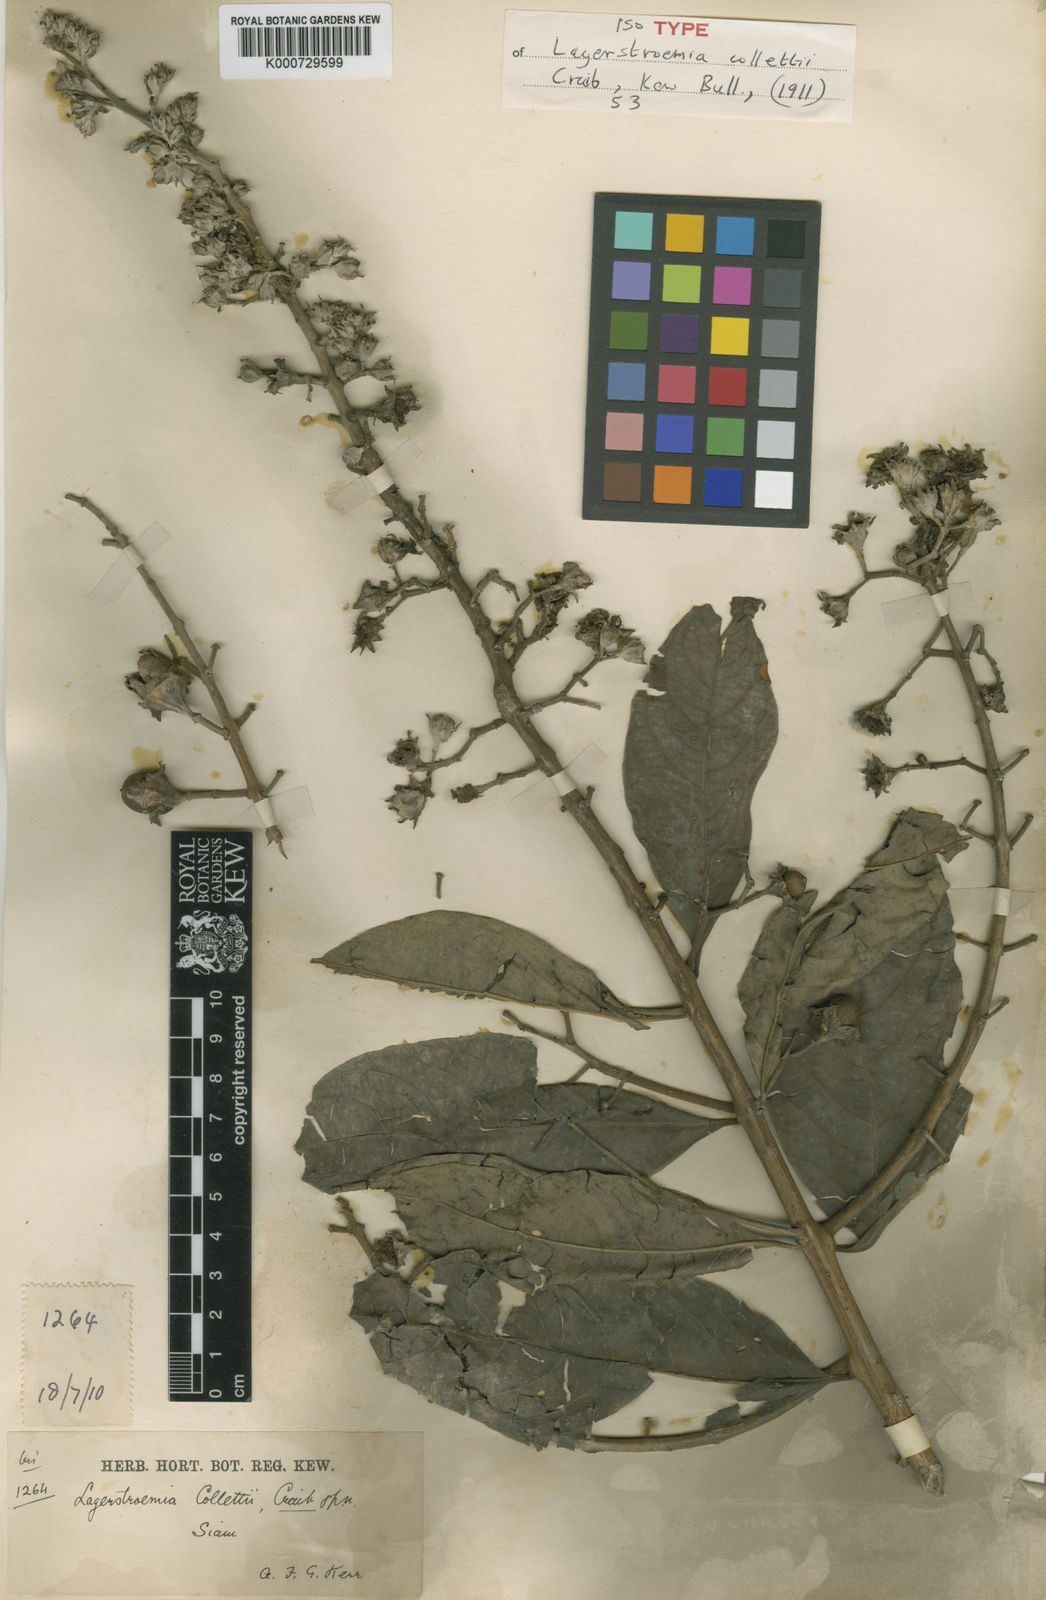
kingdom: Plantae
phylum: Tracheophyta
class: Magnoliopsida
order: Myrtales
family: Lythraceae
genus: Lagerstroemia
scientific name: Lagerstroemia venusta
